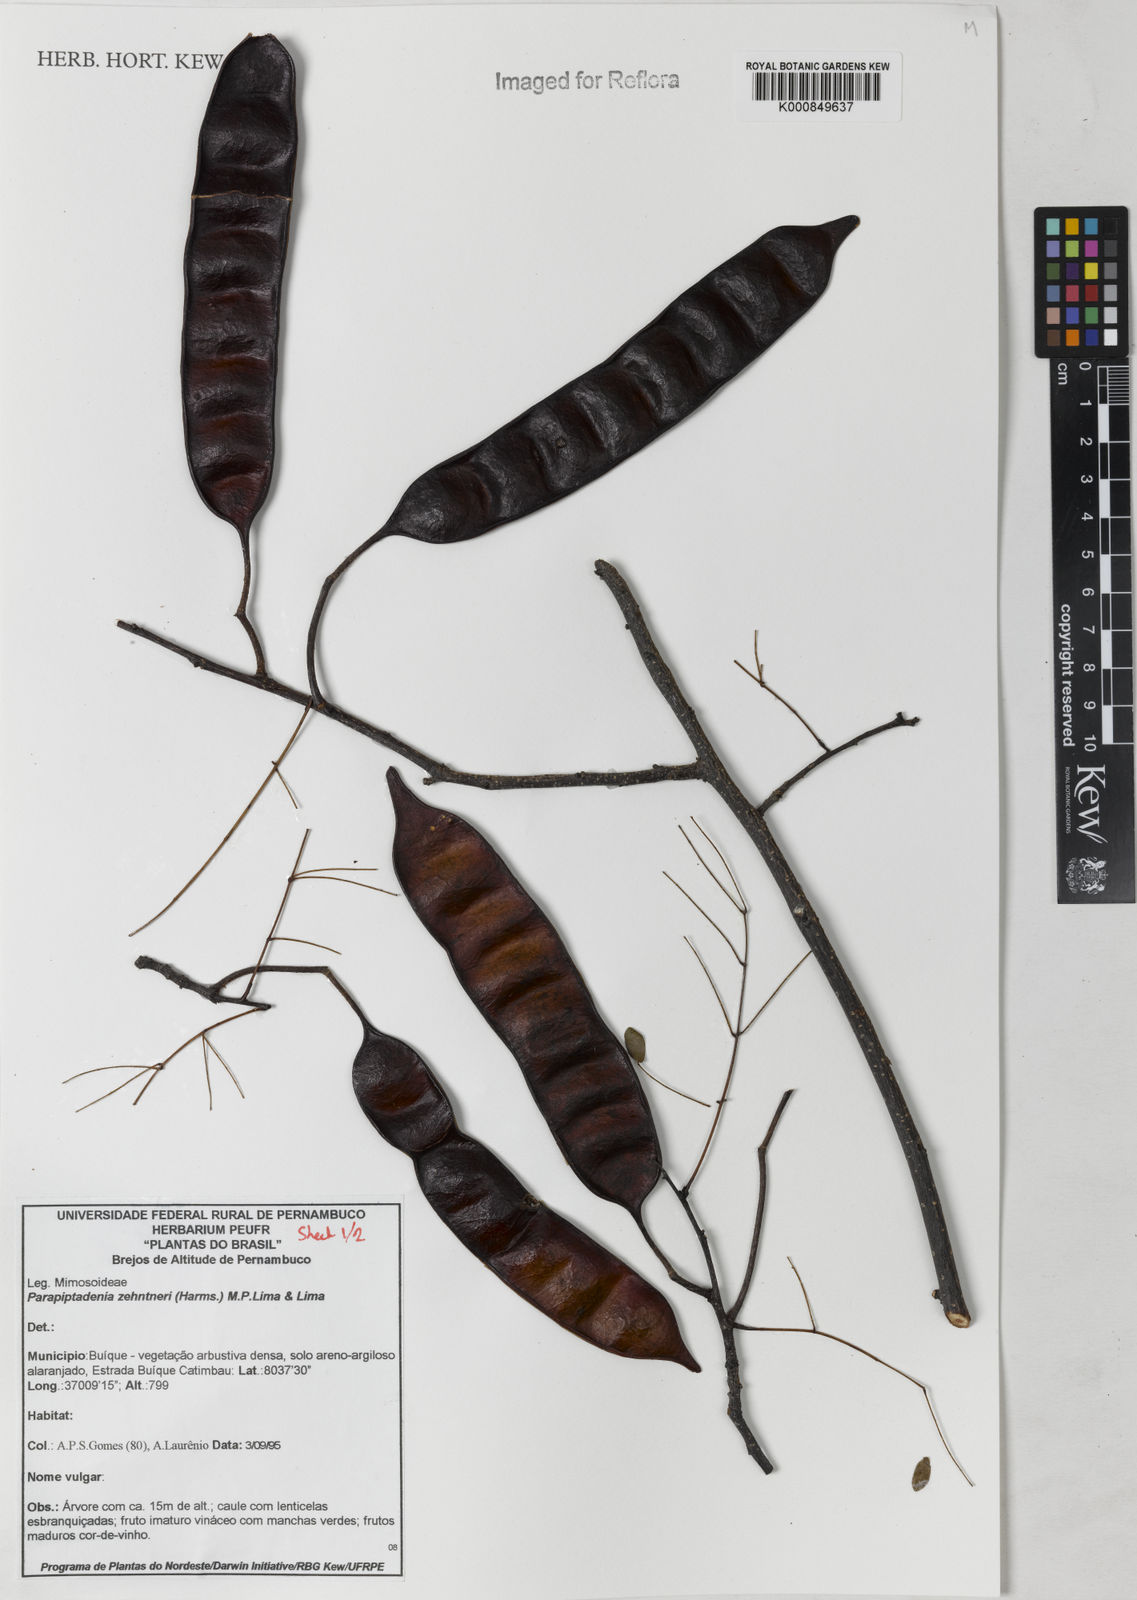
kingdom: Plantae
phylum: Tracheophyta
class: Magnoliopsida
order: Fabales
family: Fabaceae
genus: Parapiptadenia
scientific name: Parapiptadenia zehntneri
